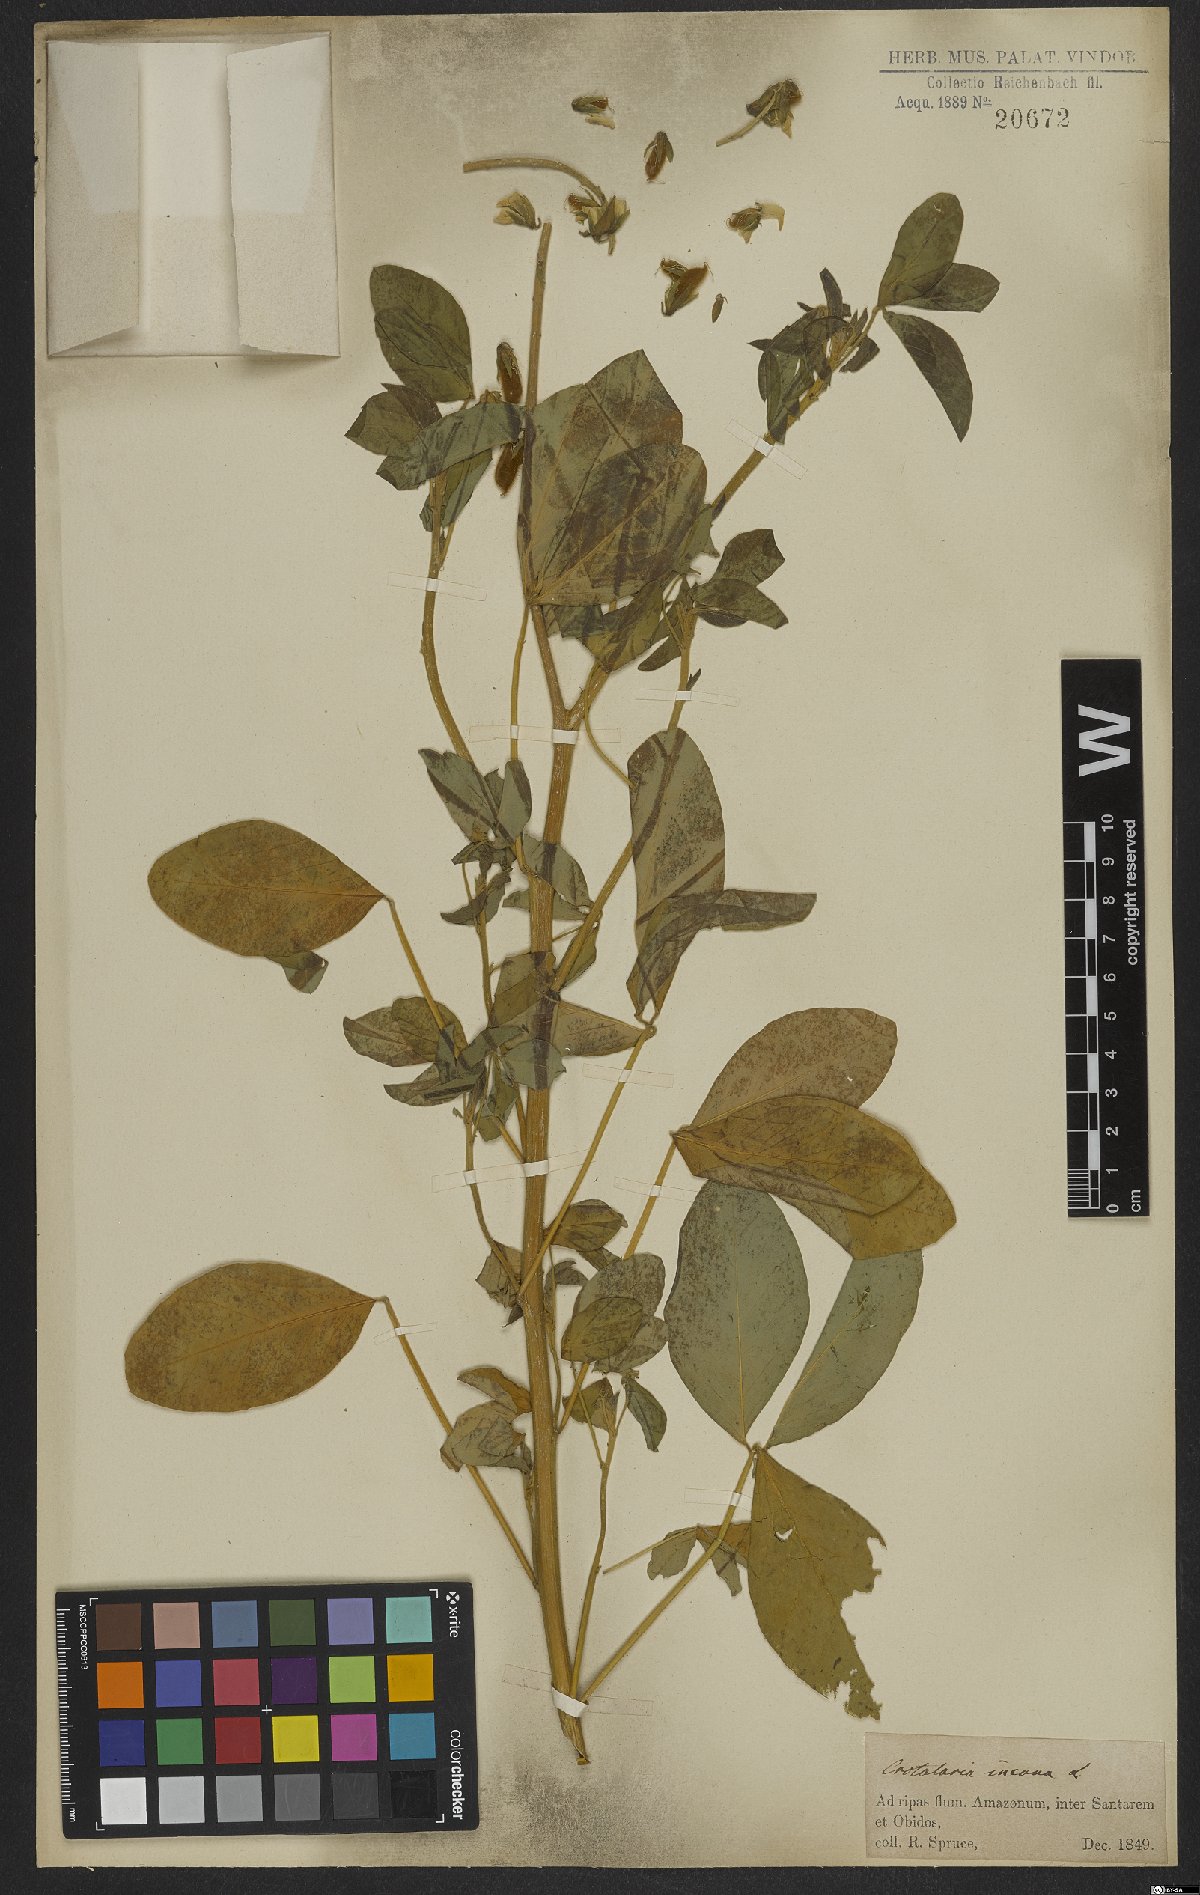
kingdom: Plantae
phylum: Tracheophyta
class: Magnoliopsida
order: Fabales
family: Fabaceae
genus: Crotalaria
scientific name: Crotalaria incana
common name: Shakeshake
